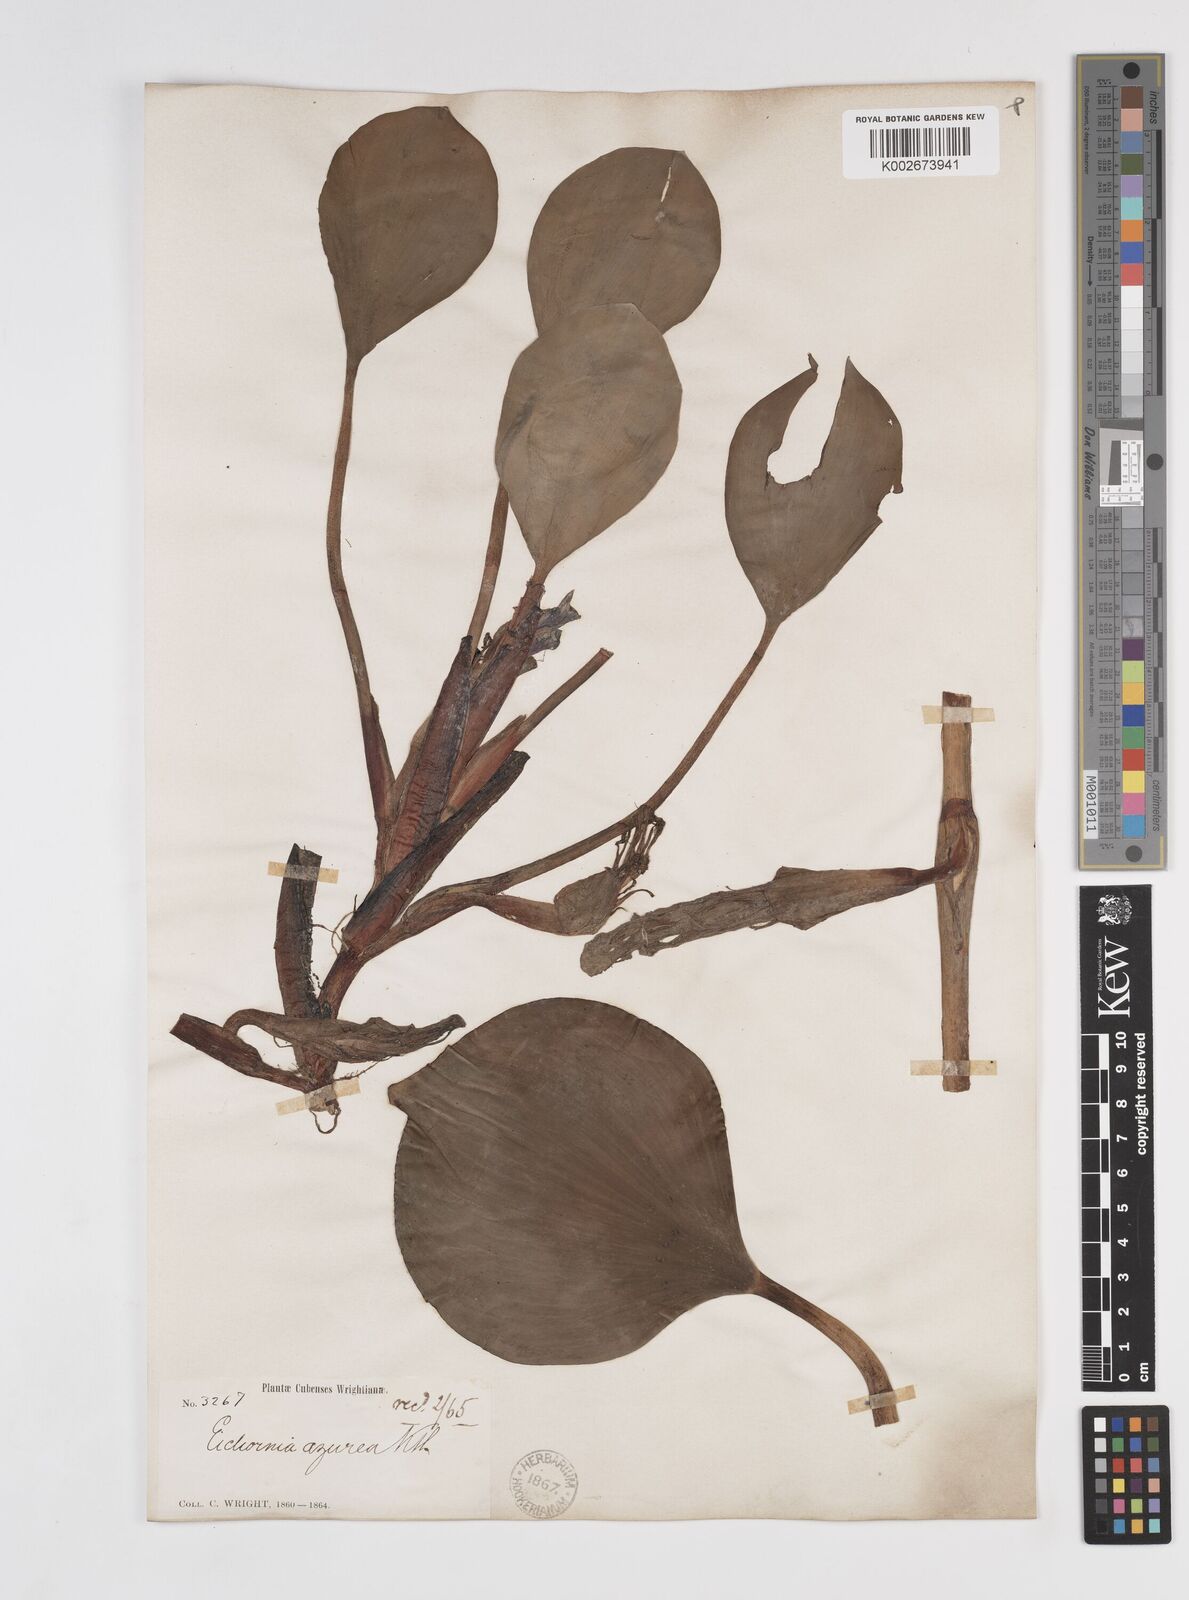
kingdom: Plantae
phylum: Tracheophyta
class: Liliopsida
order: Commelinales
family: Pontederiaceae
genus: Pontederia
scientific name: Pontederia azurea
